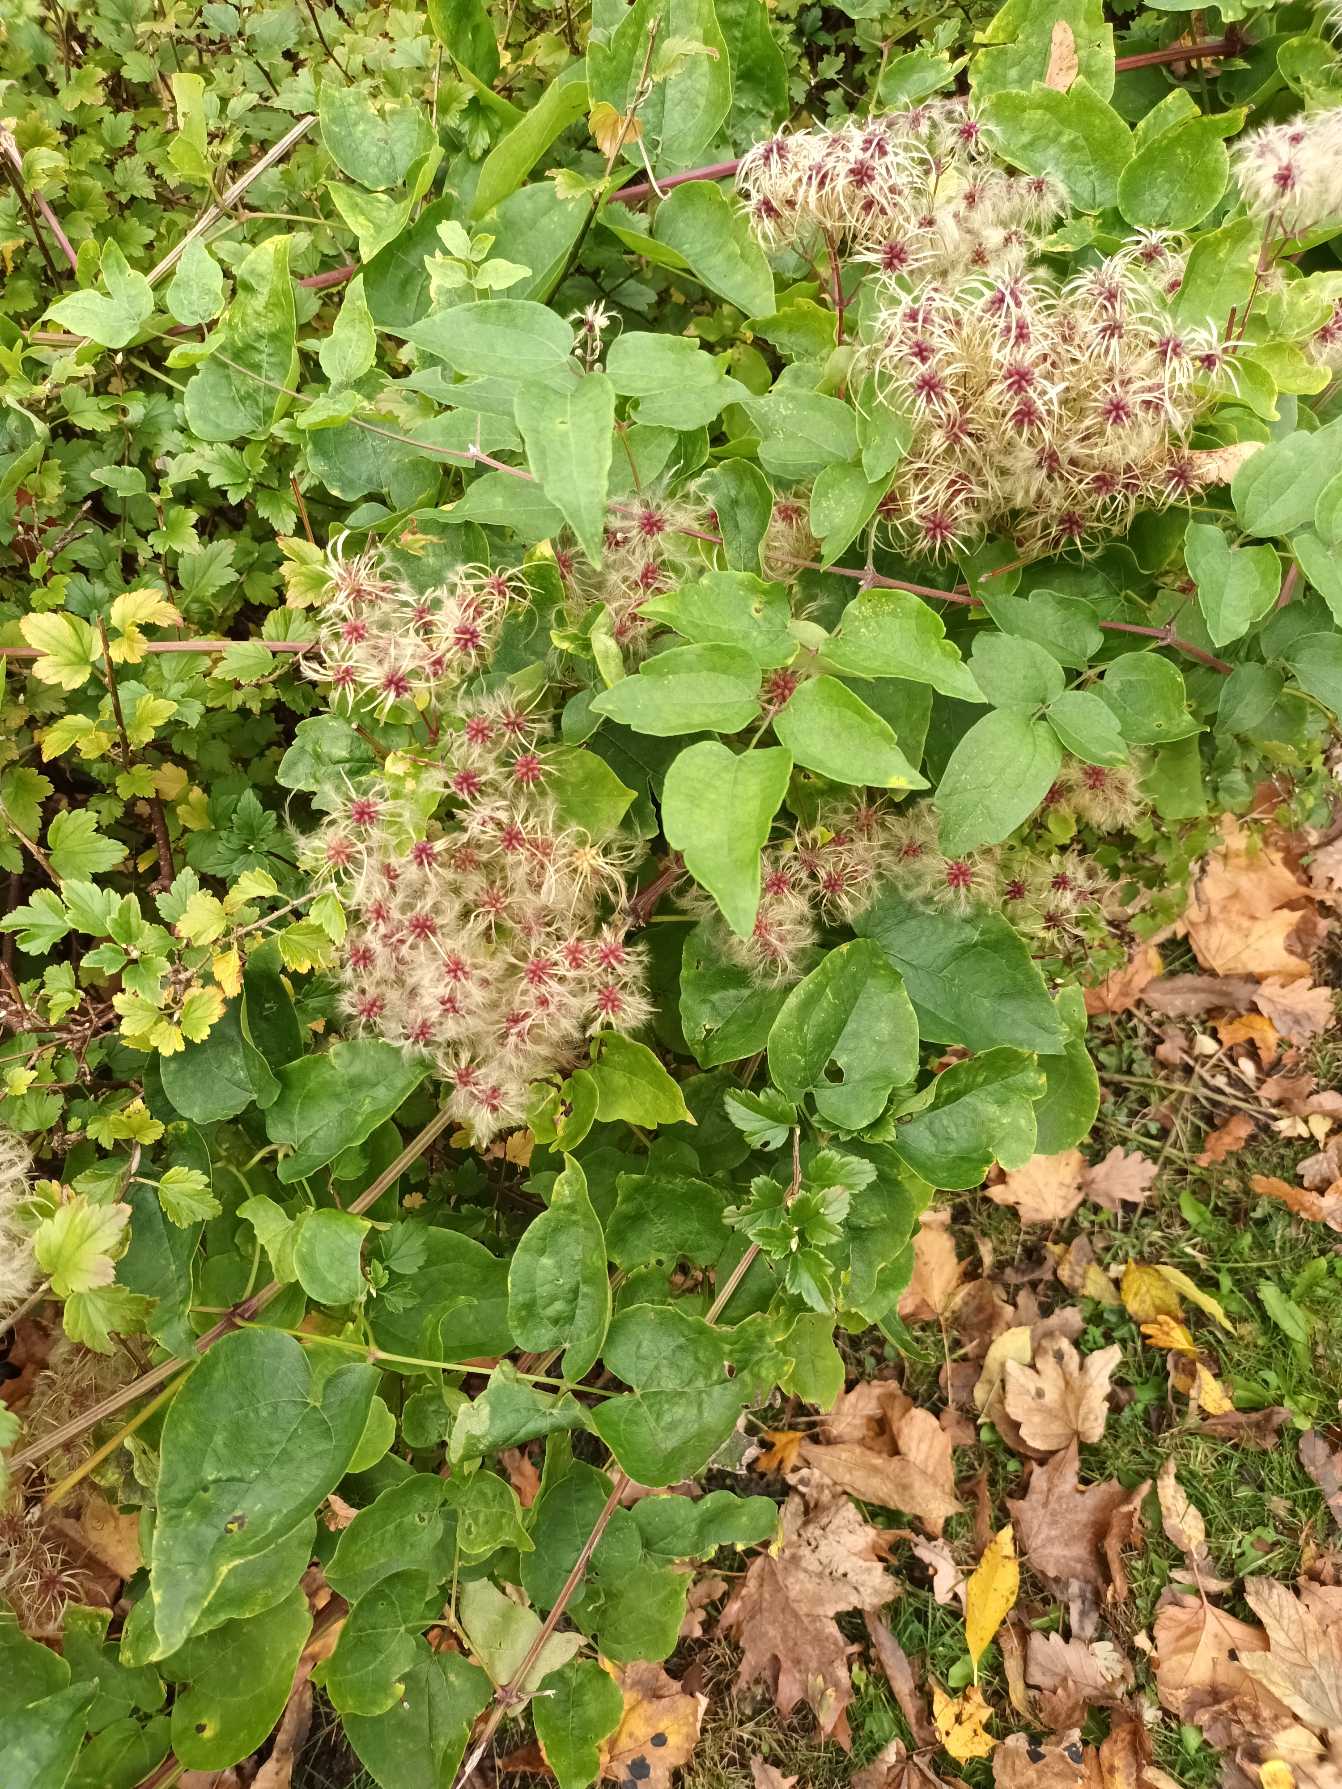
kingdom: Plantae
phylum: Tracheophyta
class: Magnoliopsida
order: Ranunculales
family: Ranunculaceae
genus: Clematis
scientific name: Clematis vitalba
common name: Skovranke
